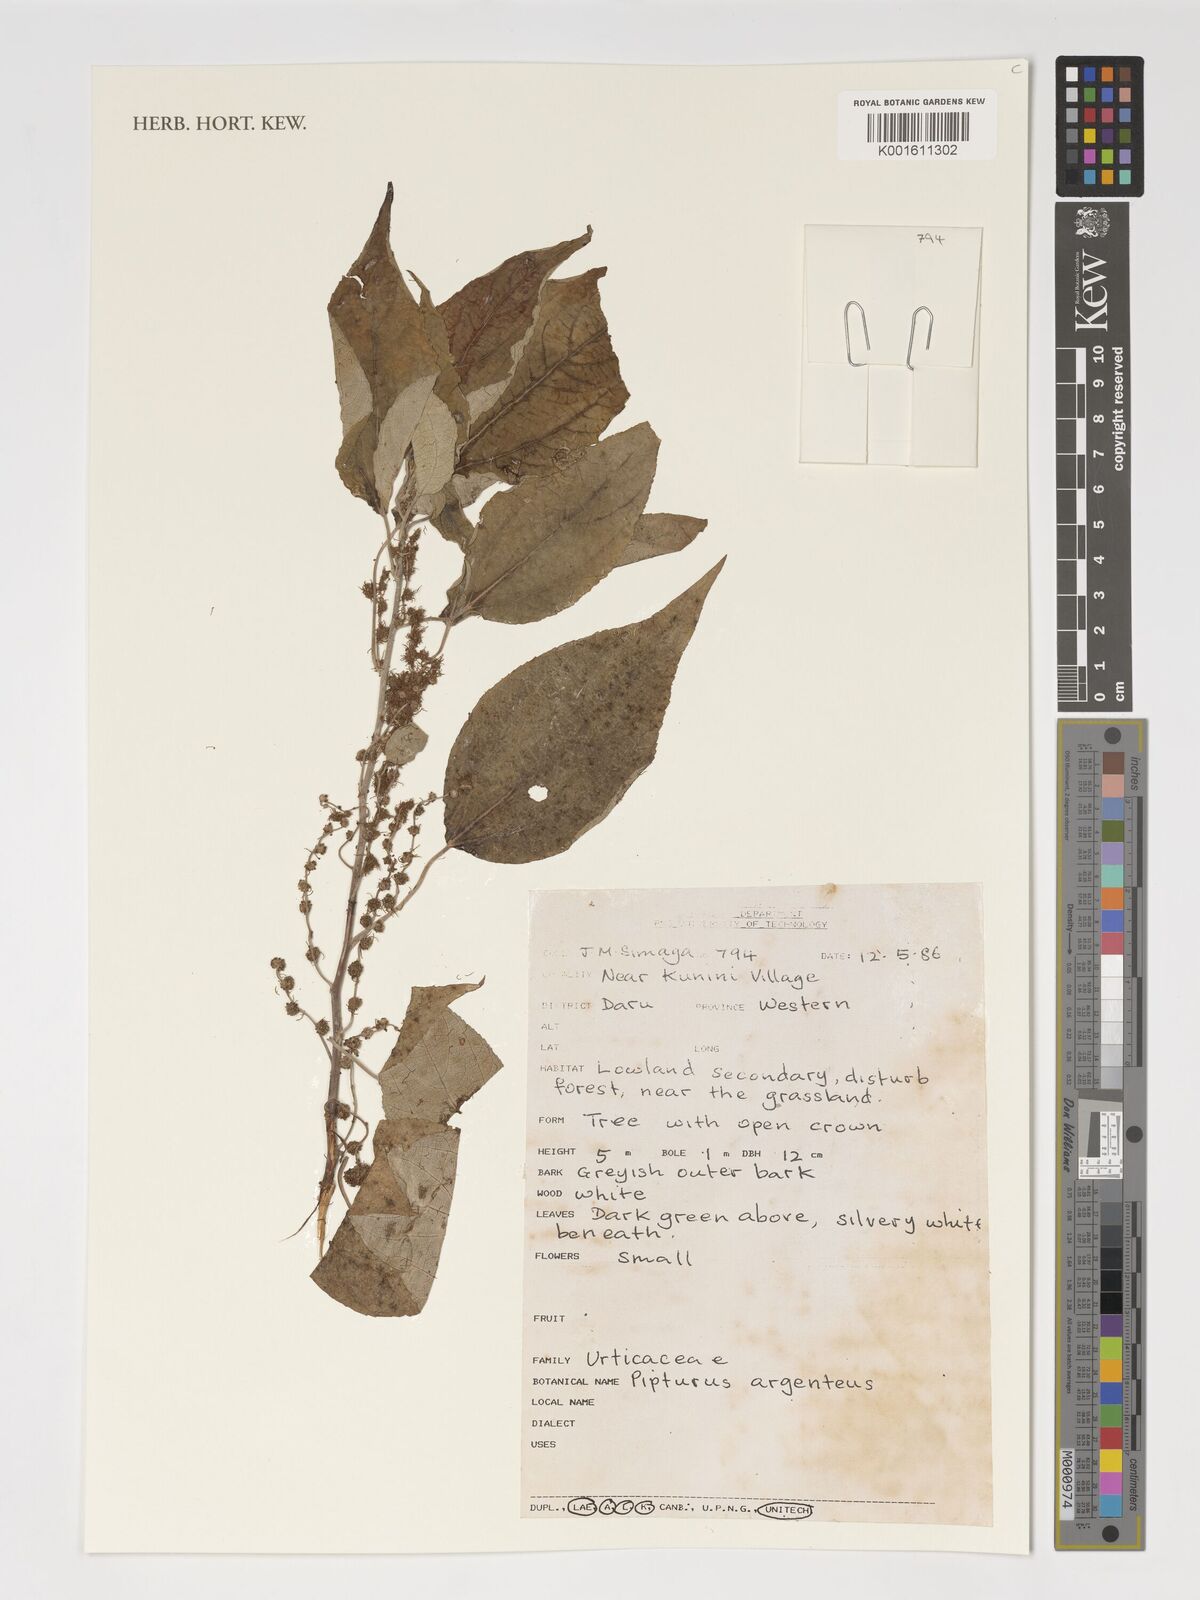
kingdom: Plantae
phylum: Tracheophyta
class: Magnoliopsida
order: Rosales
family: Urticaceae
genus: Pipturus
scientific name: Pipturus argenteus
